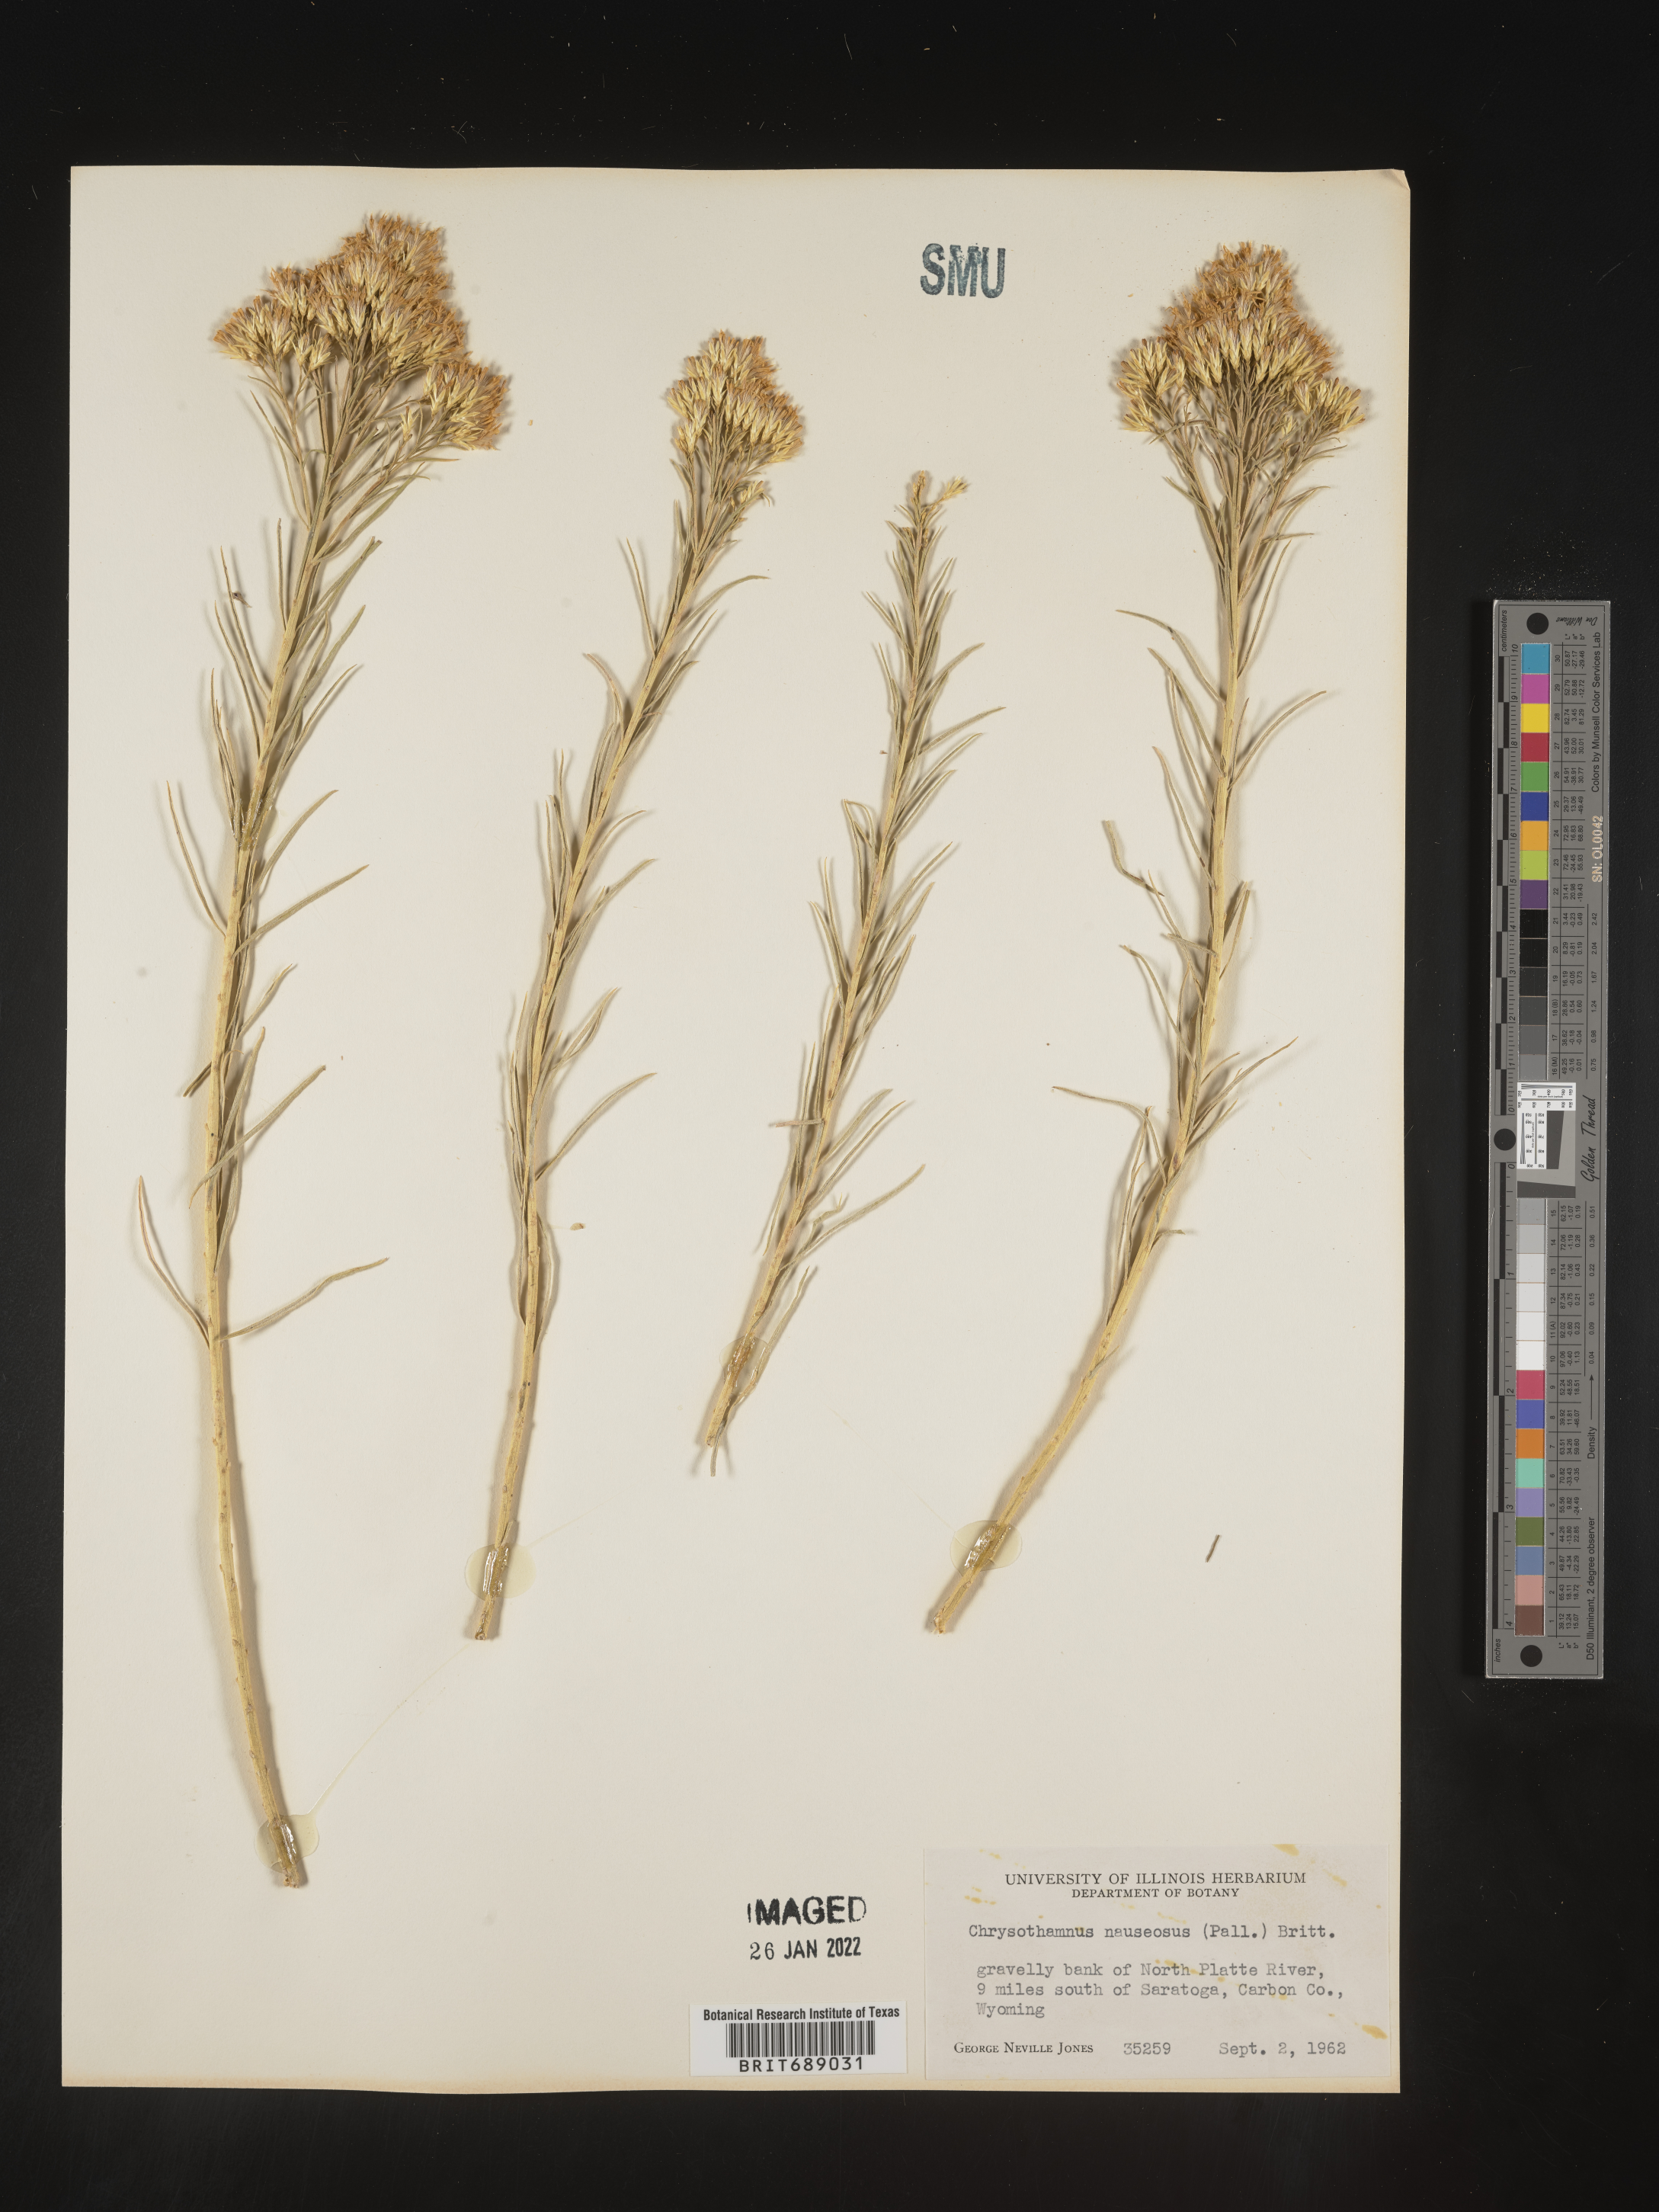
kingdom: Plantae
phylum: Tracheophyta
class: Magnoliopsida
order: Asterales
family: Asteraceae
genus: Ericameria
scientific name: Ericameria nauseosa
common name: Rubber rabbitbrush
